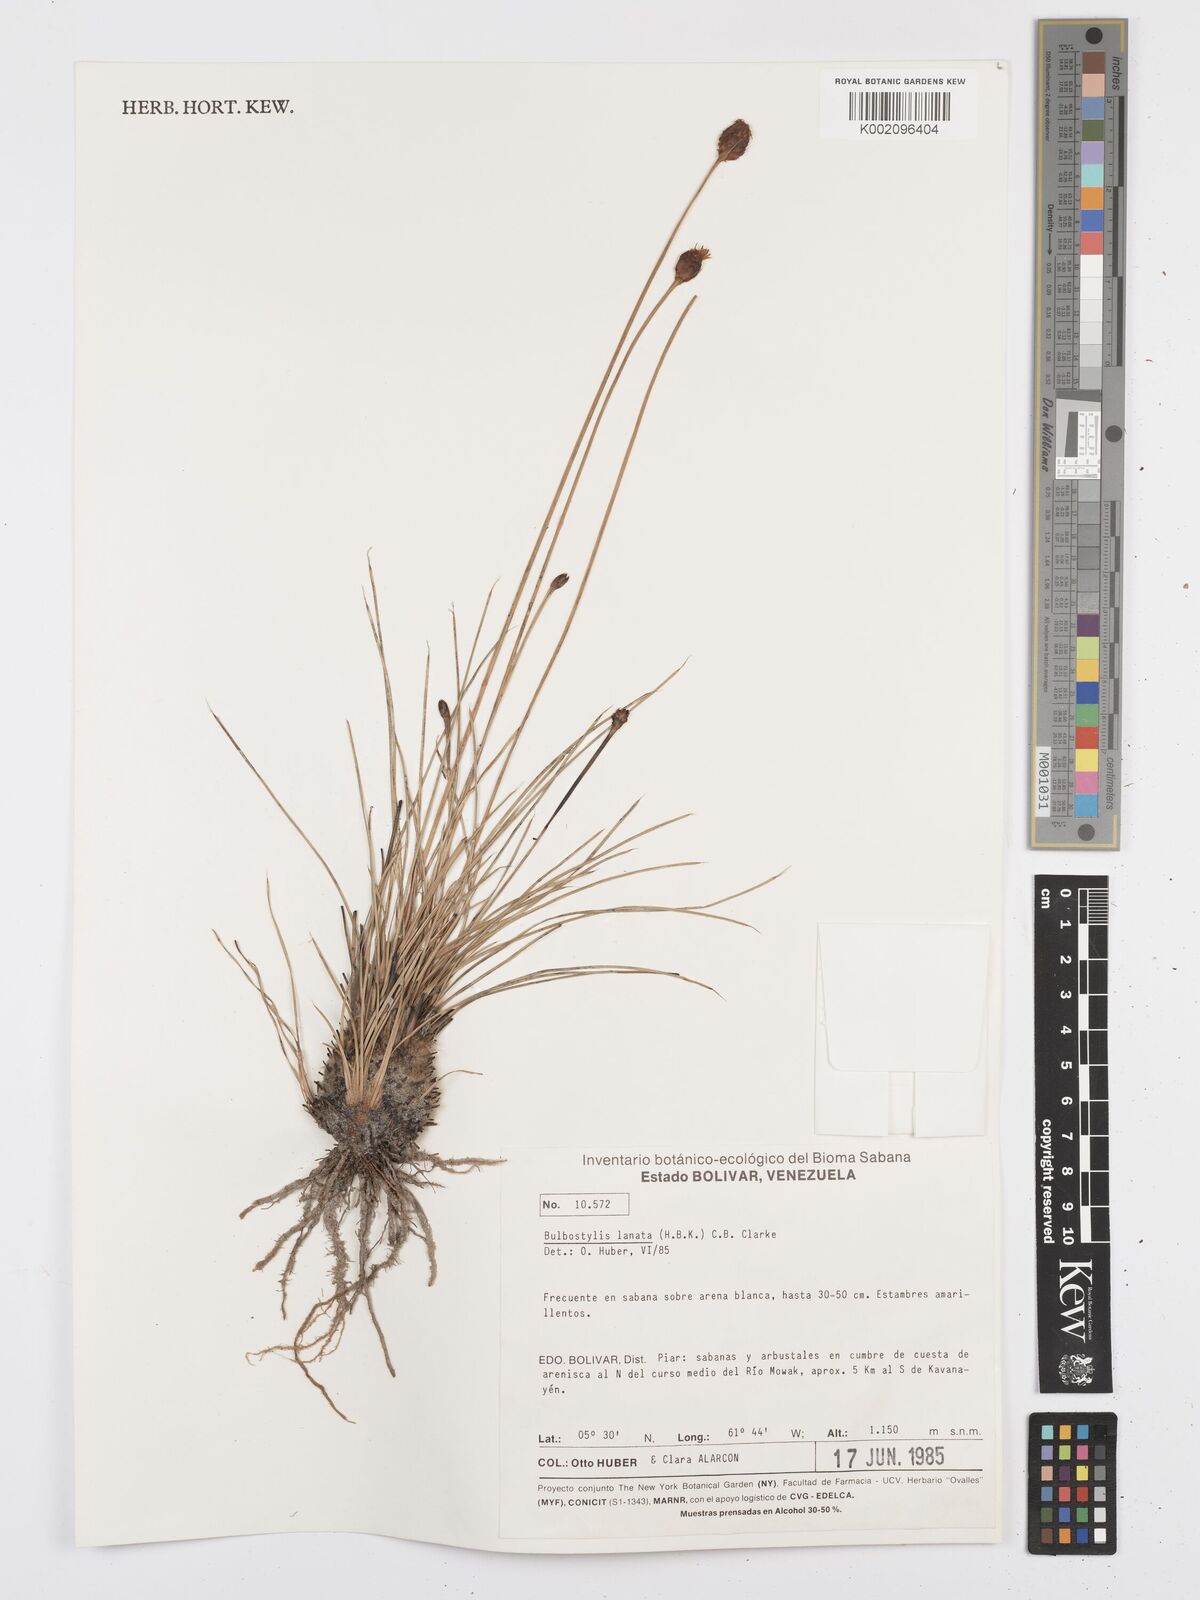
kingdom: Plantae
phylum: Tracheophyta
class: Liliopsida
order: Poales
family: Cyperaceae
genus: Bulbostylis
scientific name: Bulbostylis lanata
